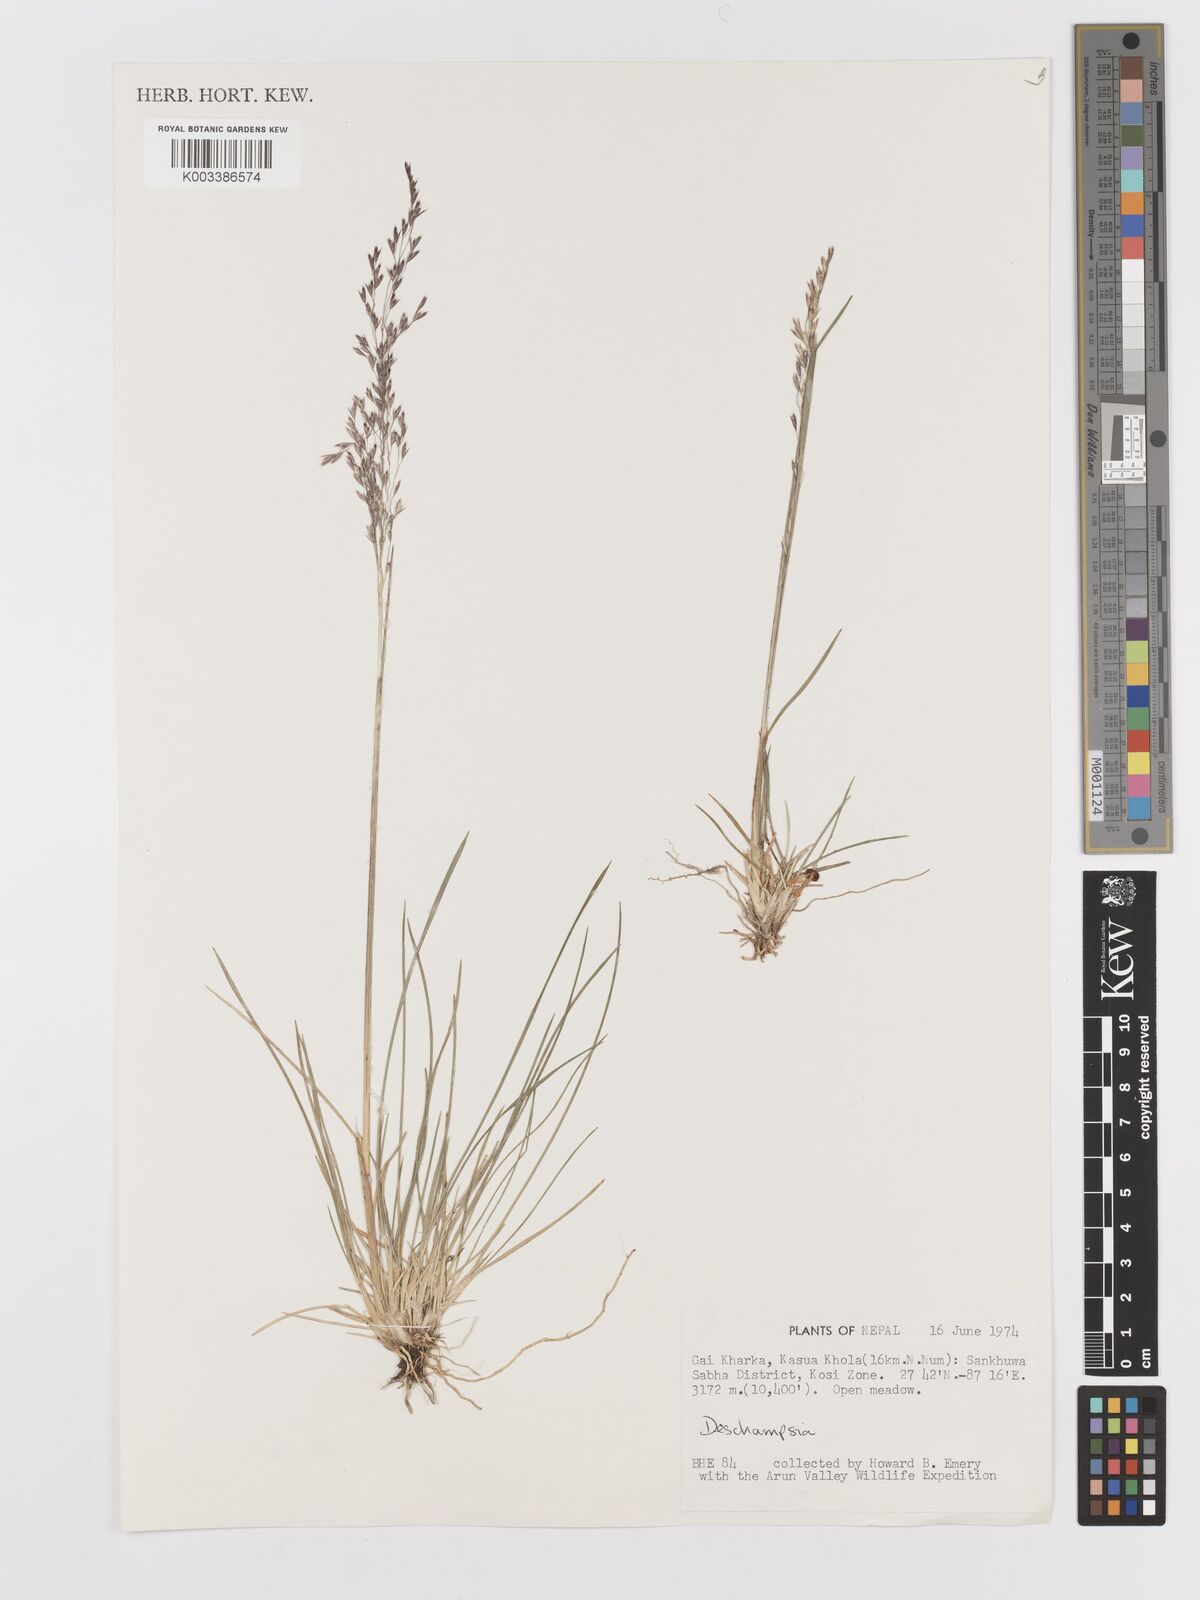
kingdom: Plantae
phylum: Tracheophyta
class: Liliopsida
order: Poales
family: Poaceae
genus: Deschampsia
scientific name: Deschampsia
